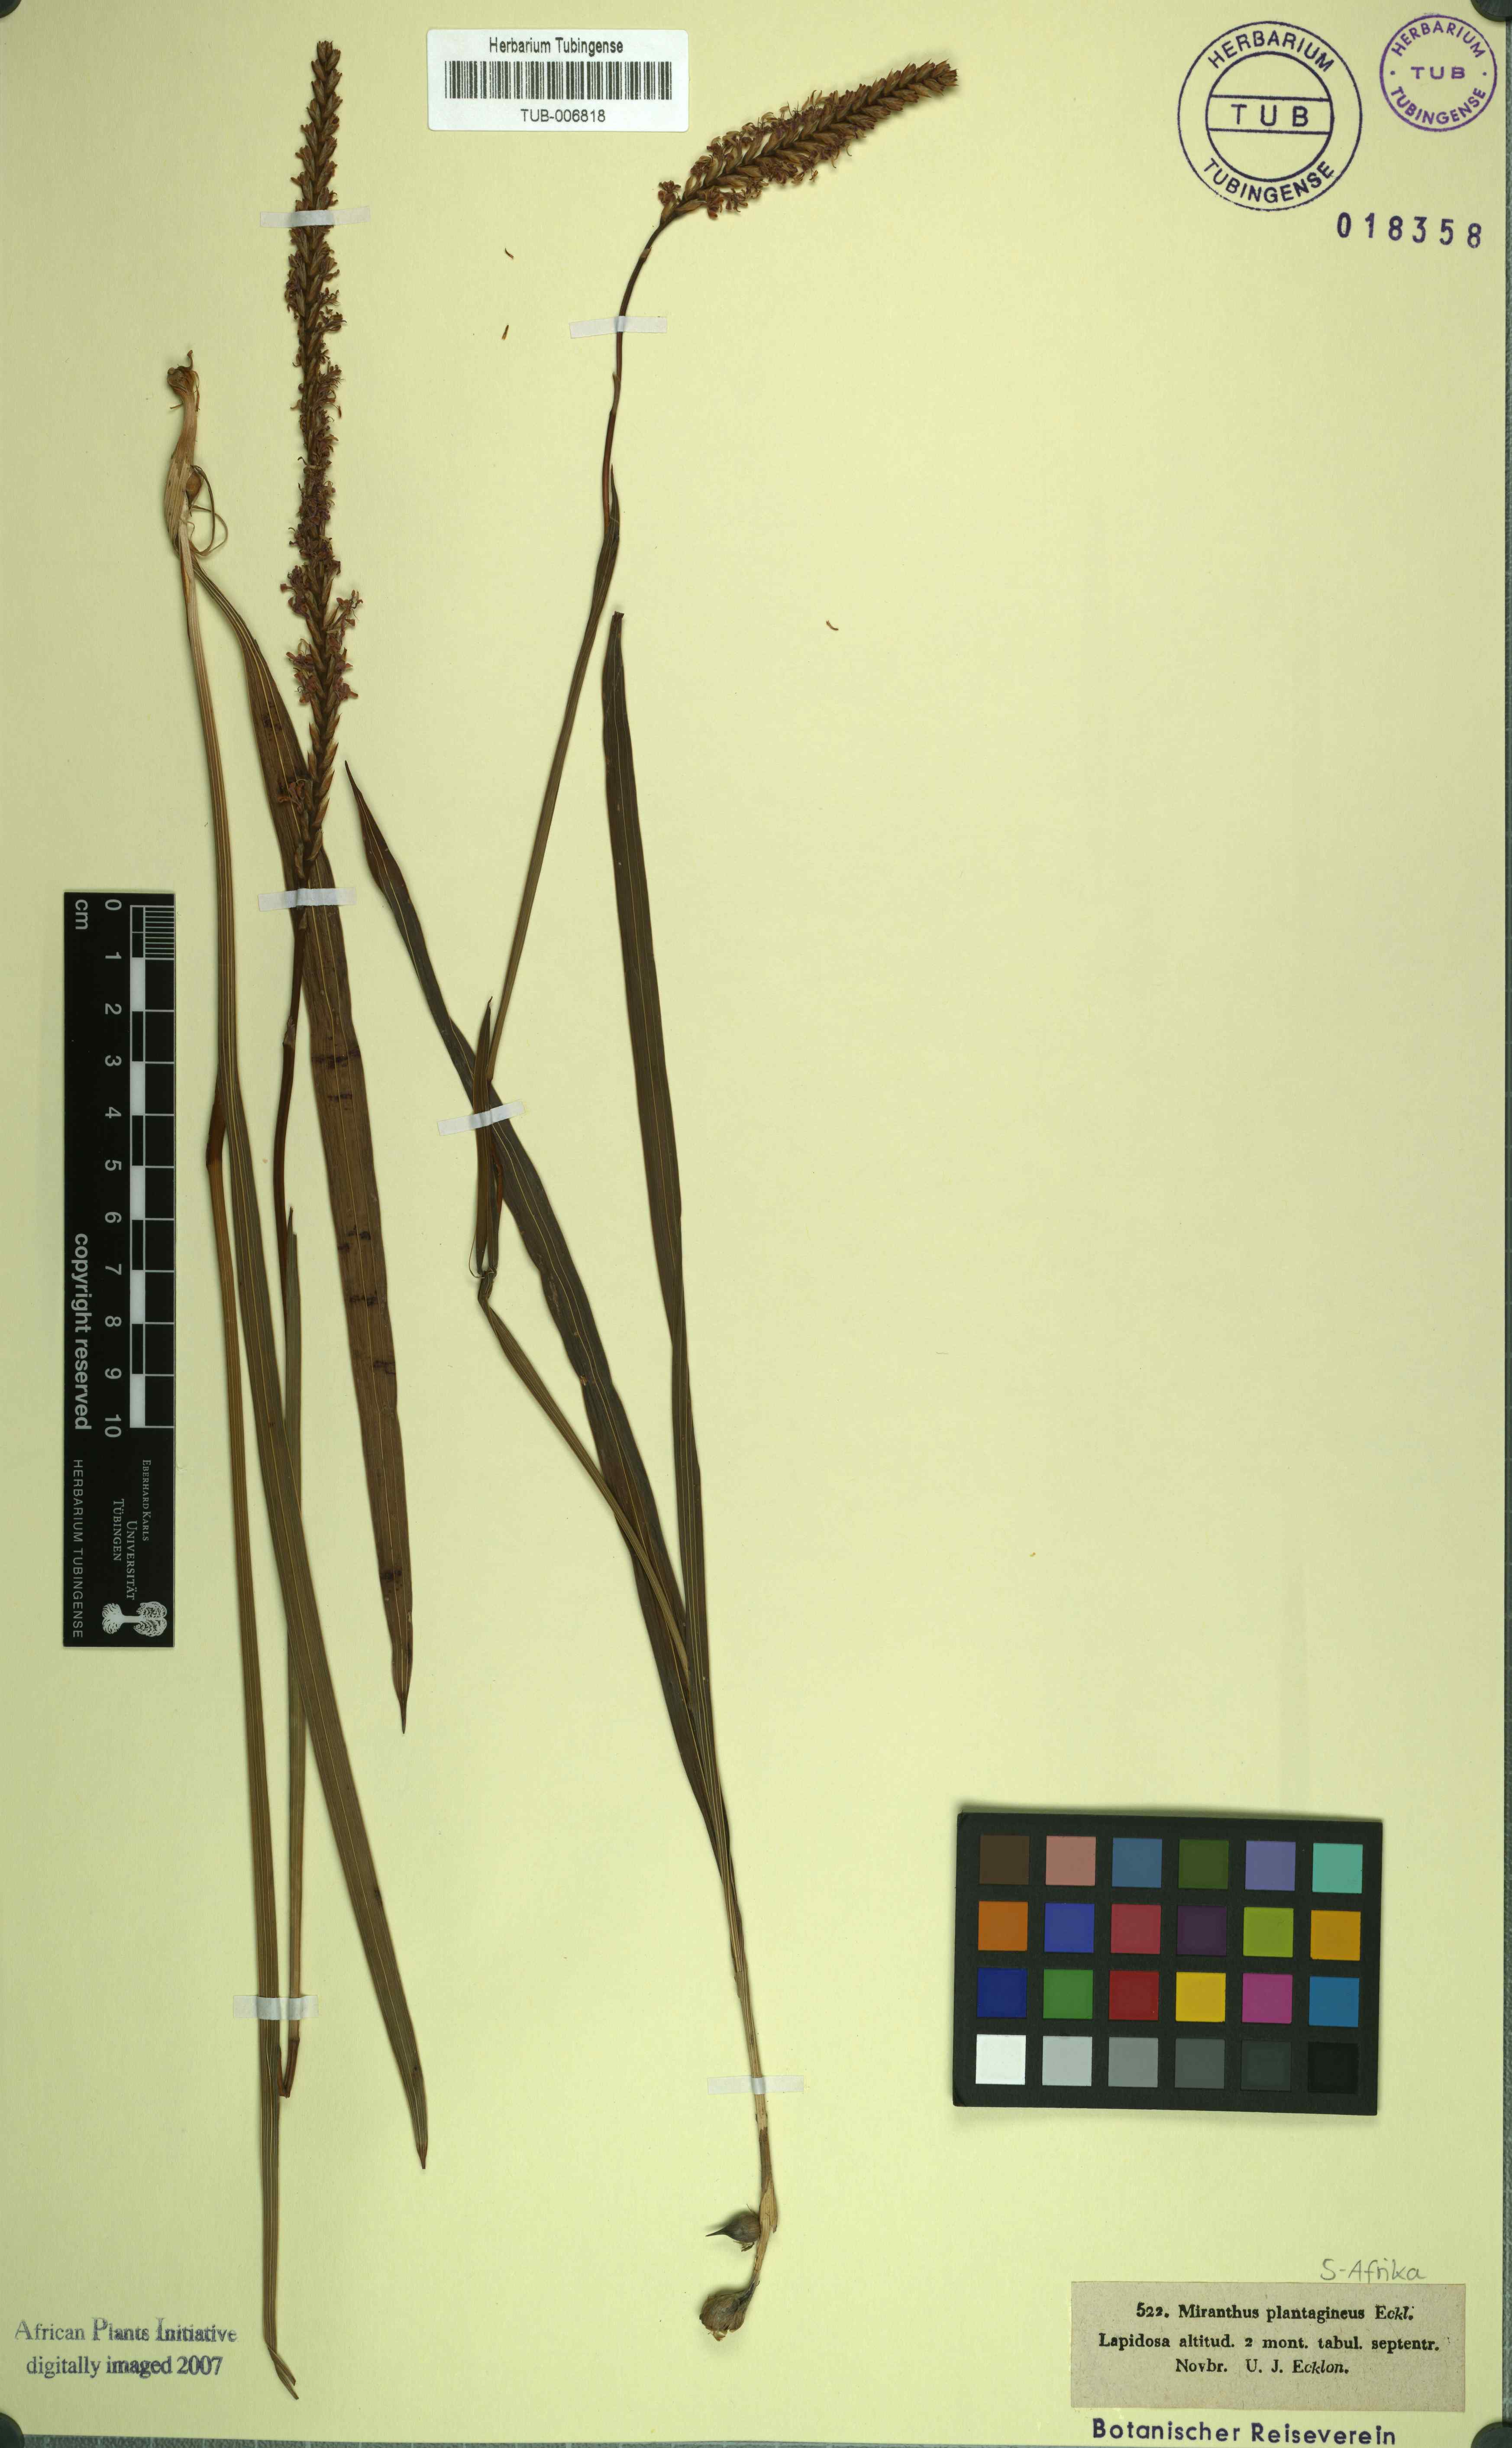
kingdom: Plantae
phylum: Tracheophyta
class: Liliopsida
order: Asparagales
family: Iridaceae
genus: Micranthus
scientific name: Micranthus alopecuroides
